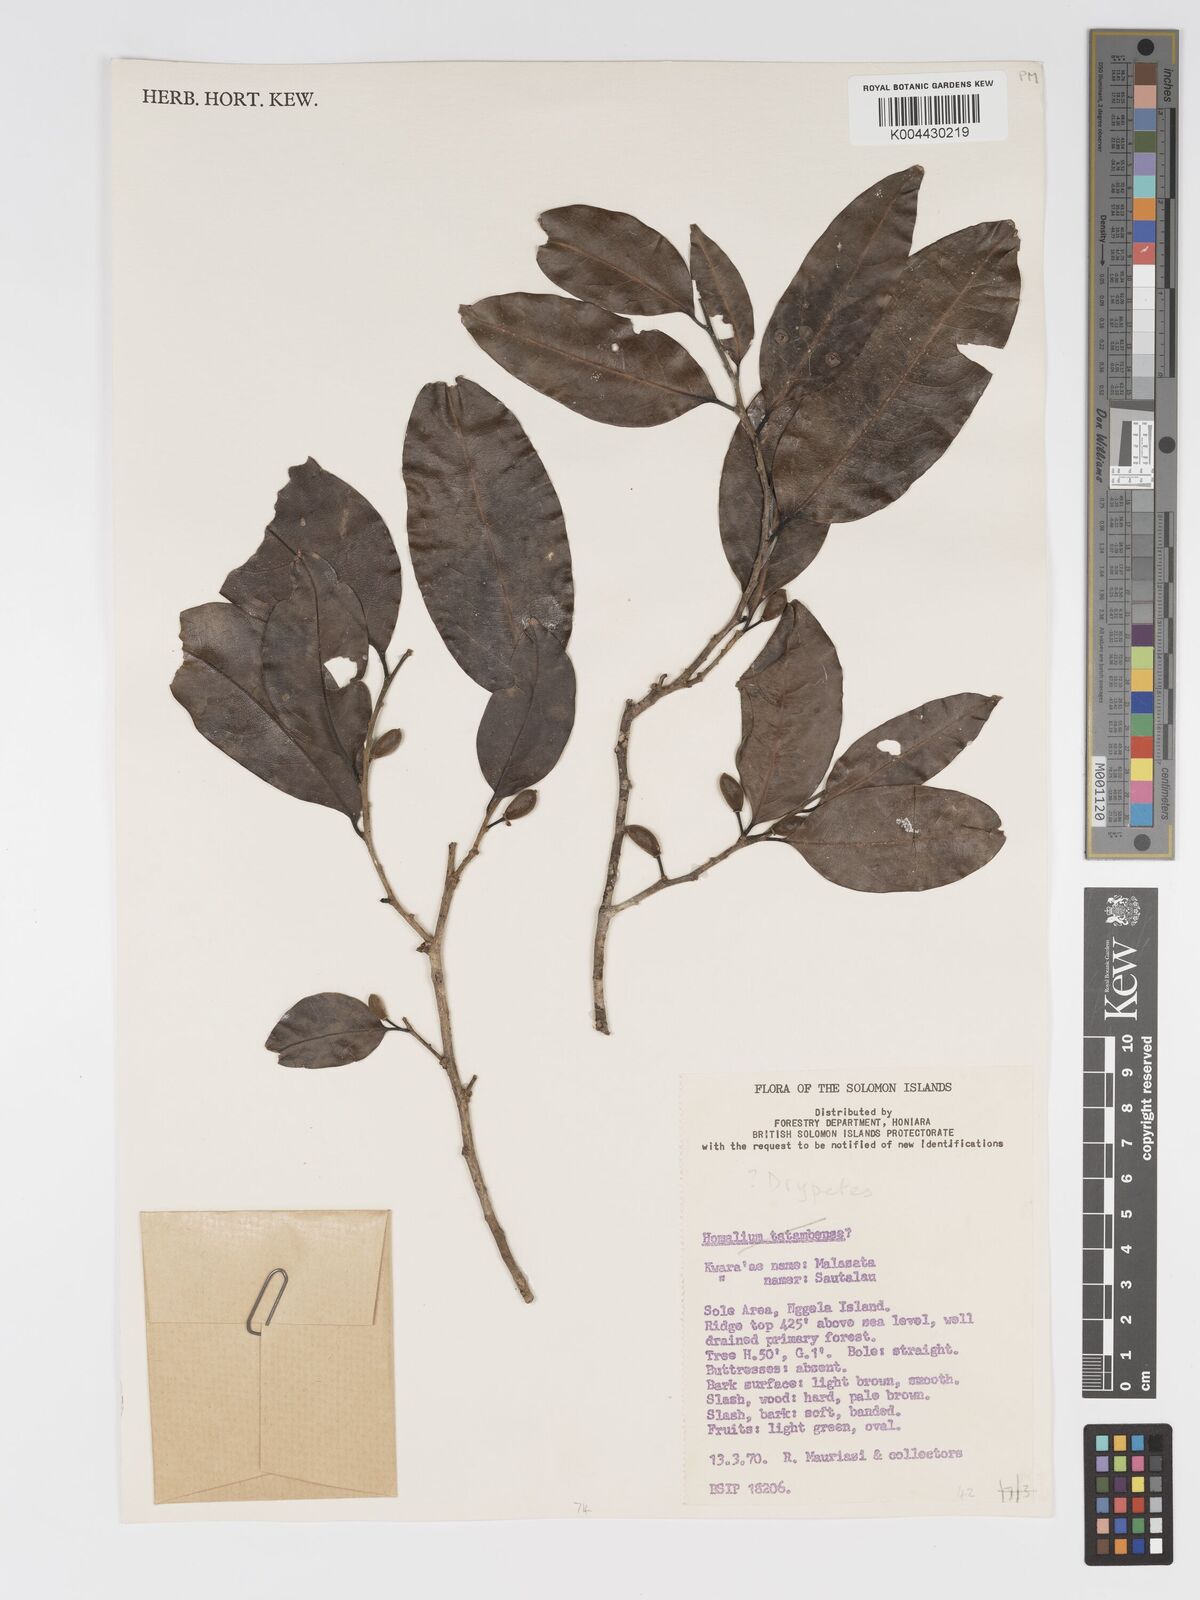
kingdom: Plantae
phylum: Tracheophyta
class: Magnoliopsida
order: Malpighiales
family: Putranjivaceae
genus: Drypetes
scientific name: Drypetes littoralis
